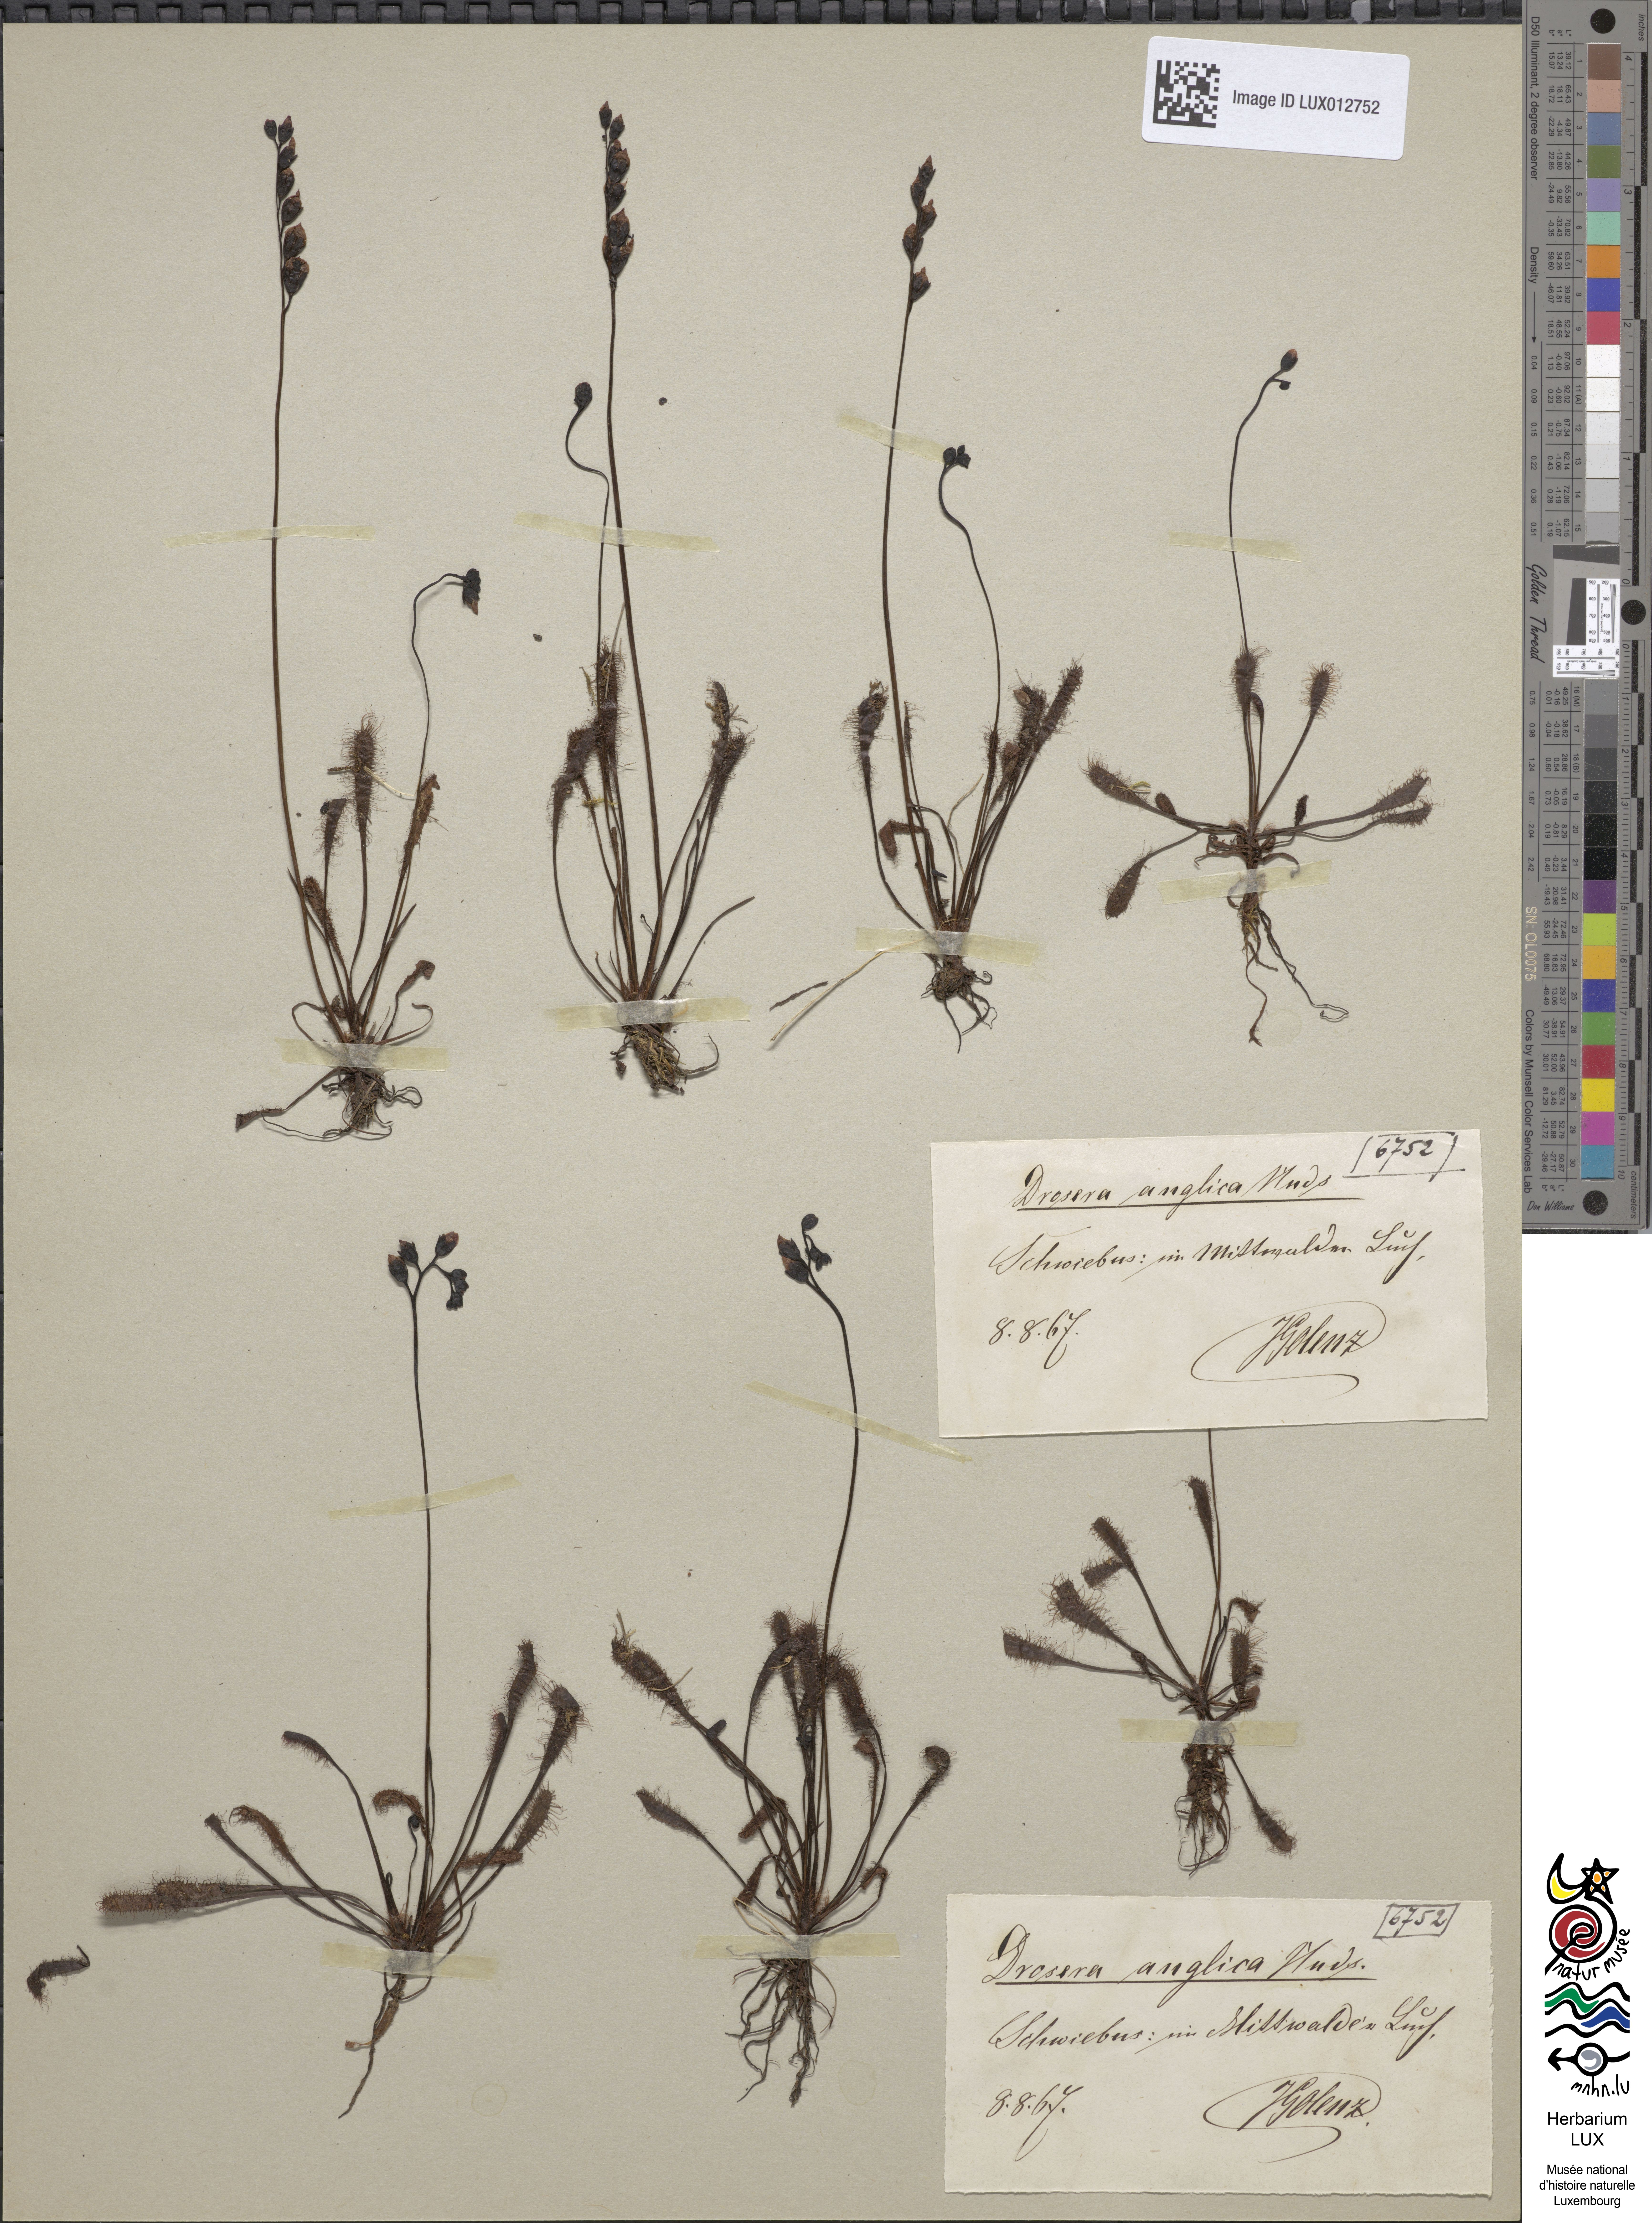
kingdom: Plantae
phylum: Tracheophyta
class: Magnoliopsida
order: Caryophyllales
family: Droseraceae
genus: Drosera
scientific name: Drosera anglica
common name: Great sundew
